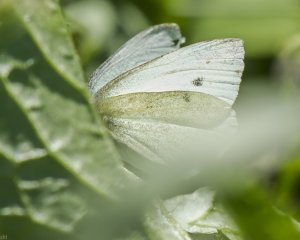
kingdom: Animalia
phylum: Arthropoda
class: Insecta
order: Lepidoptera
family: Pieridae
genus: Pieris
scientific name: Pieris rapae
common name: Cabbage White
